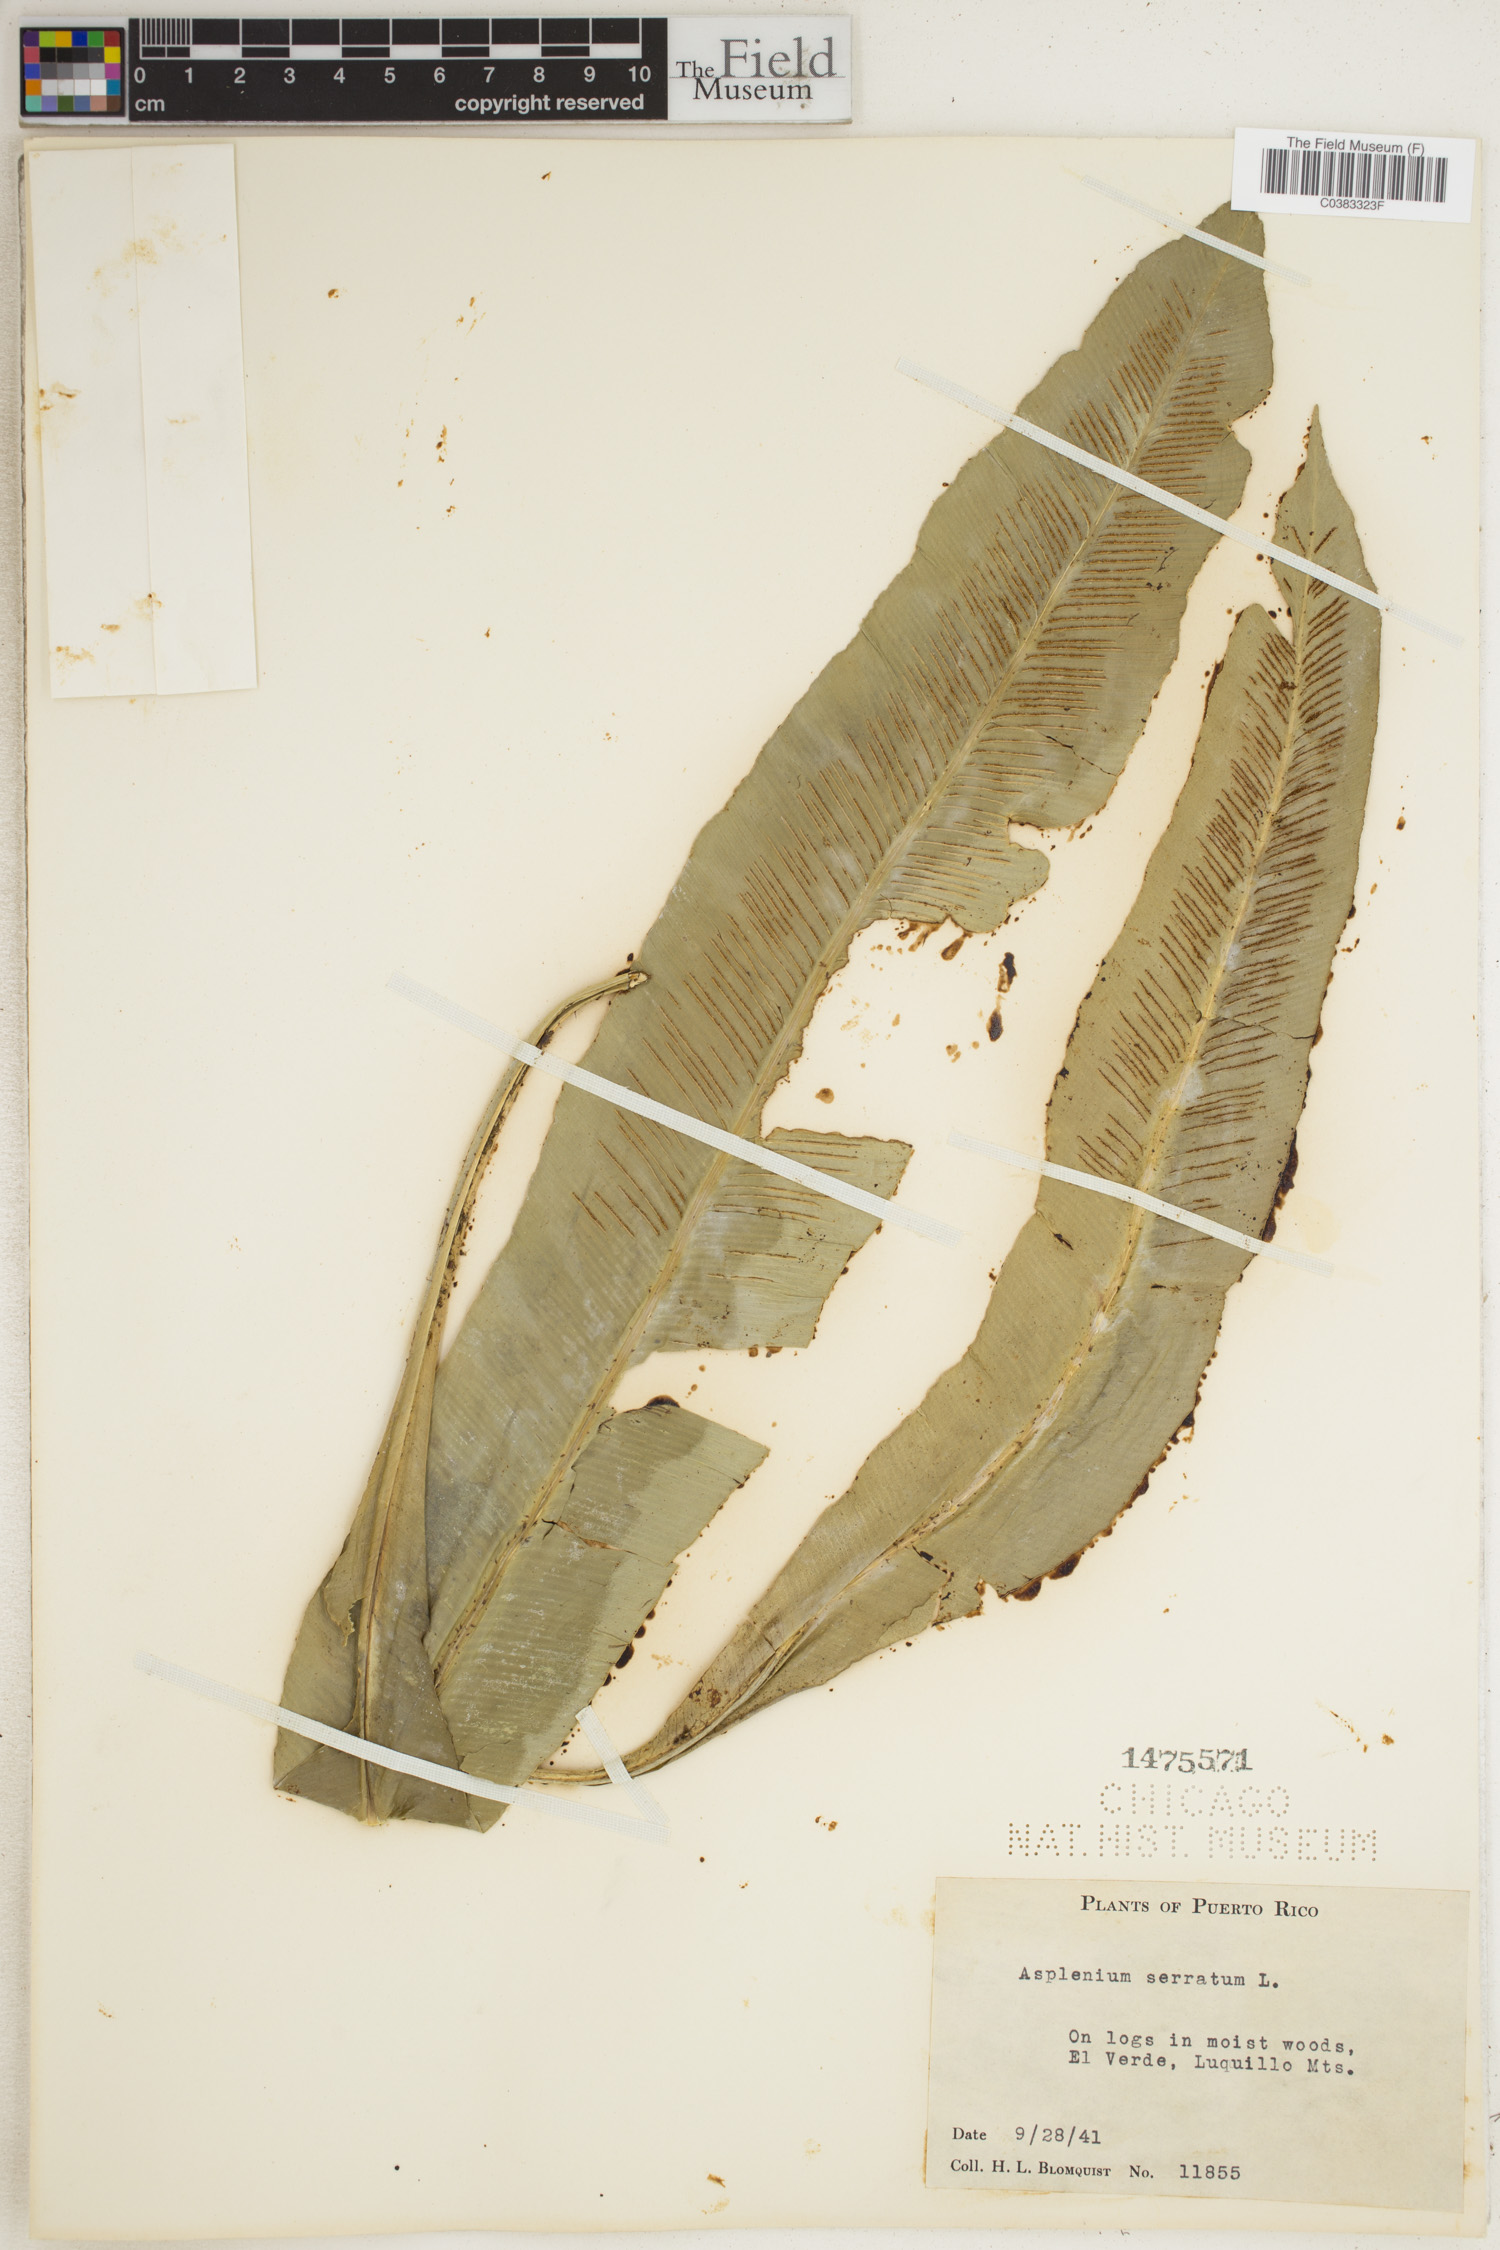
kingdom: Plantae
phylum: Tracheophyta
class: Polypodiopsida
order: Polypodiales
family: Aspleniaceae
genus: Asplenium
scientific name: Asplenium serratum
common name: Wild birdnest fern
